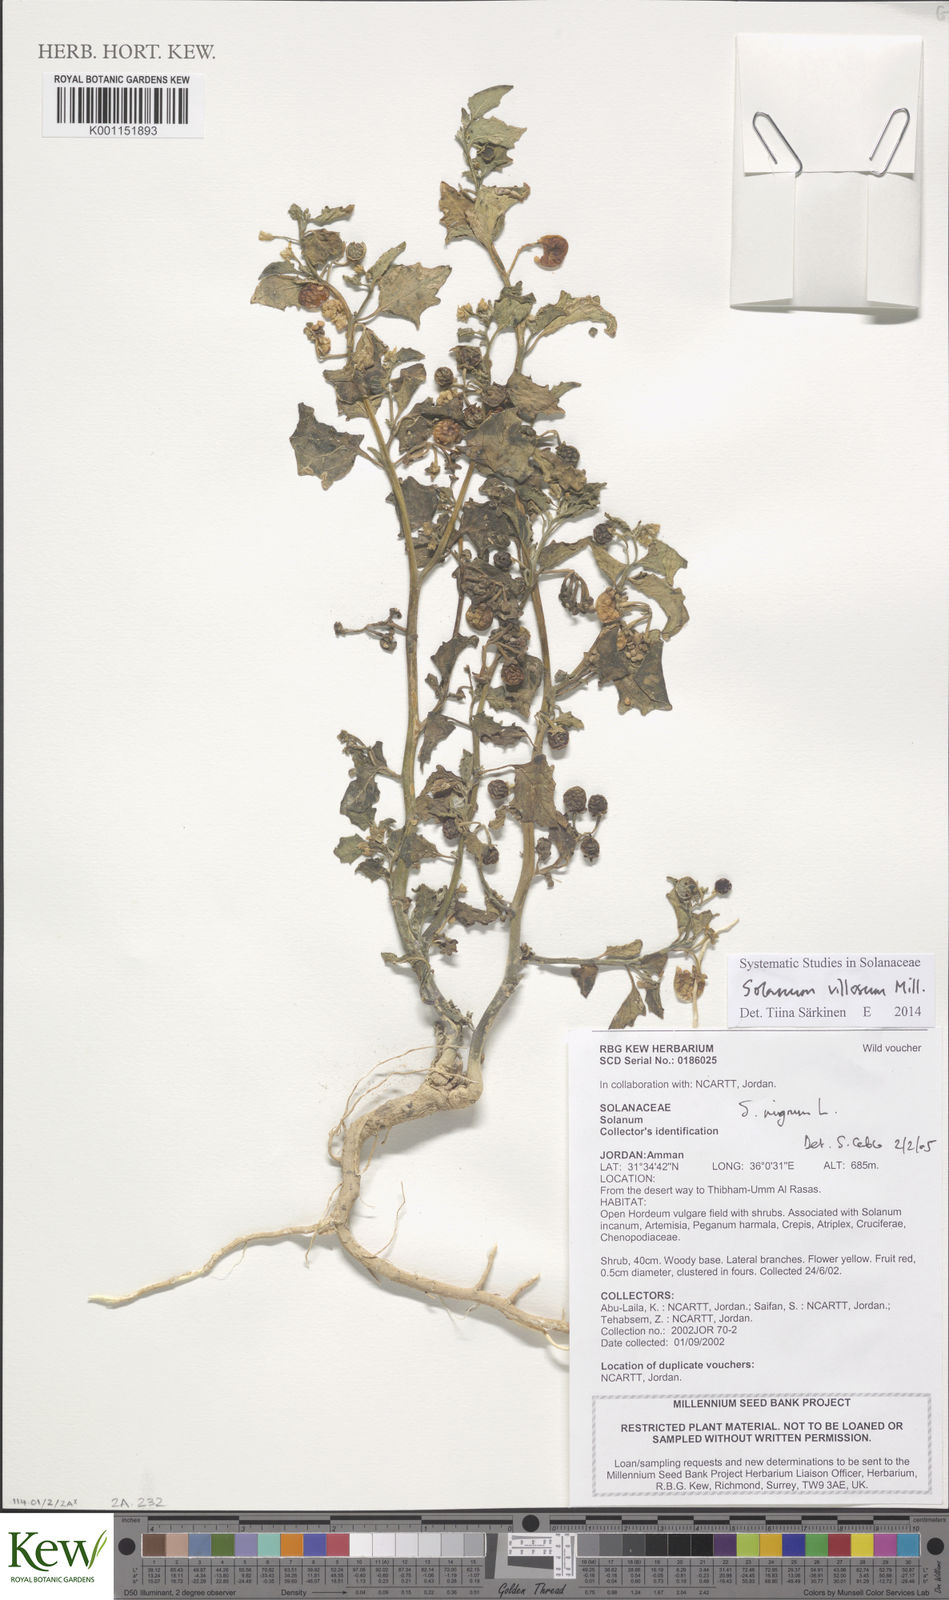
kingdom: Plantae
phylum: Tracheophyta
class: Magnoliopsida
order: Solanales
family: Solanaceae
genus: Solanum
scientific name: Solanum villosum
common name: Red nightshade
